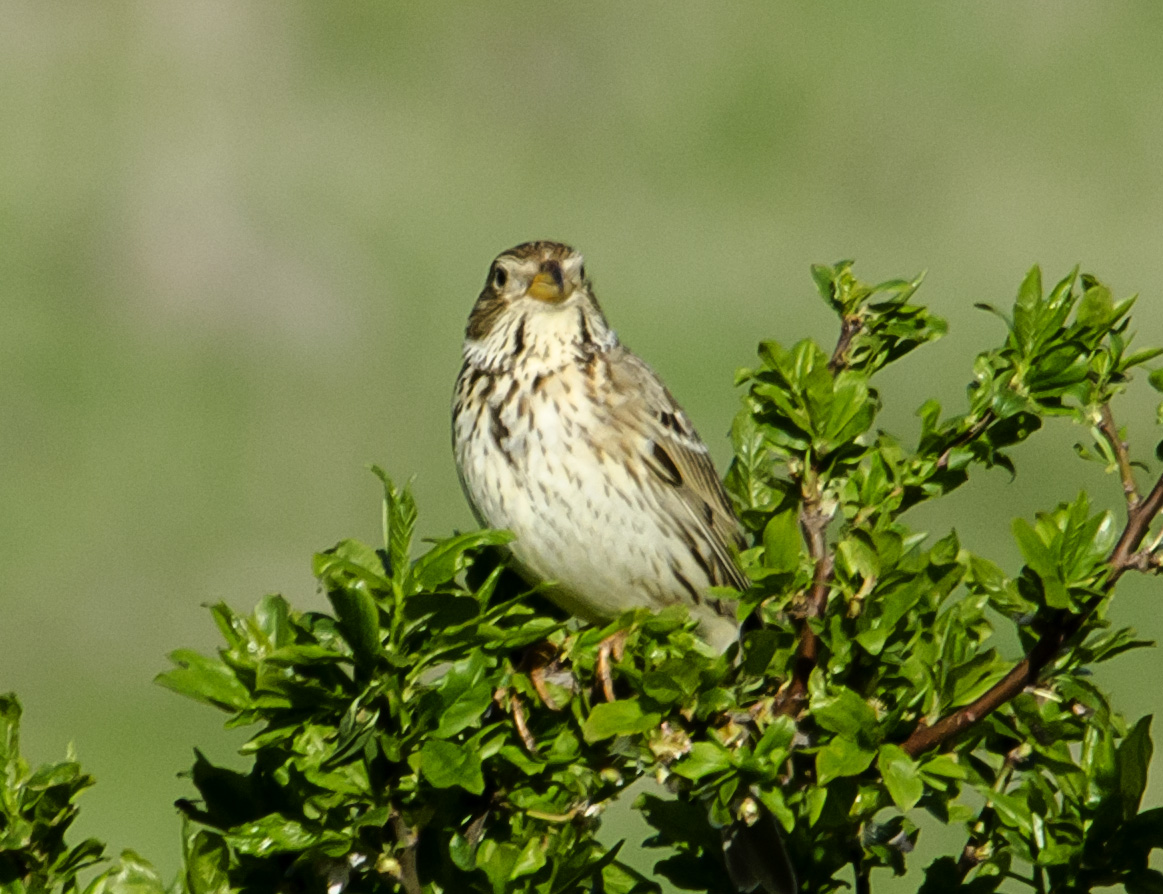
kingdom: Animalia
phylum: Chordata
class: Aves
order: Passeriformes
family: Emberizidae
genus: Emberiza
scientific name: Emberiza calandra
